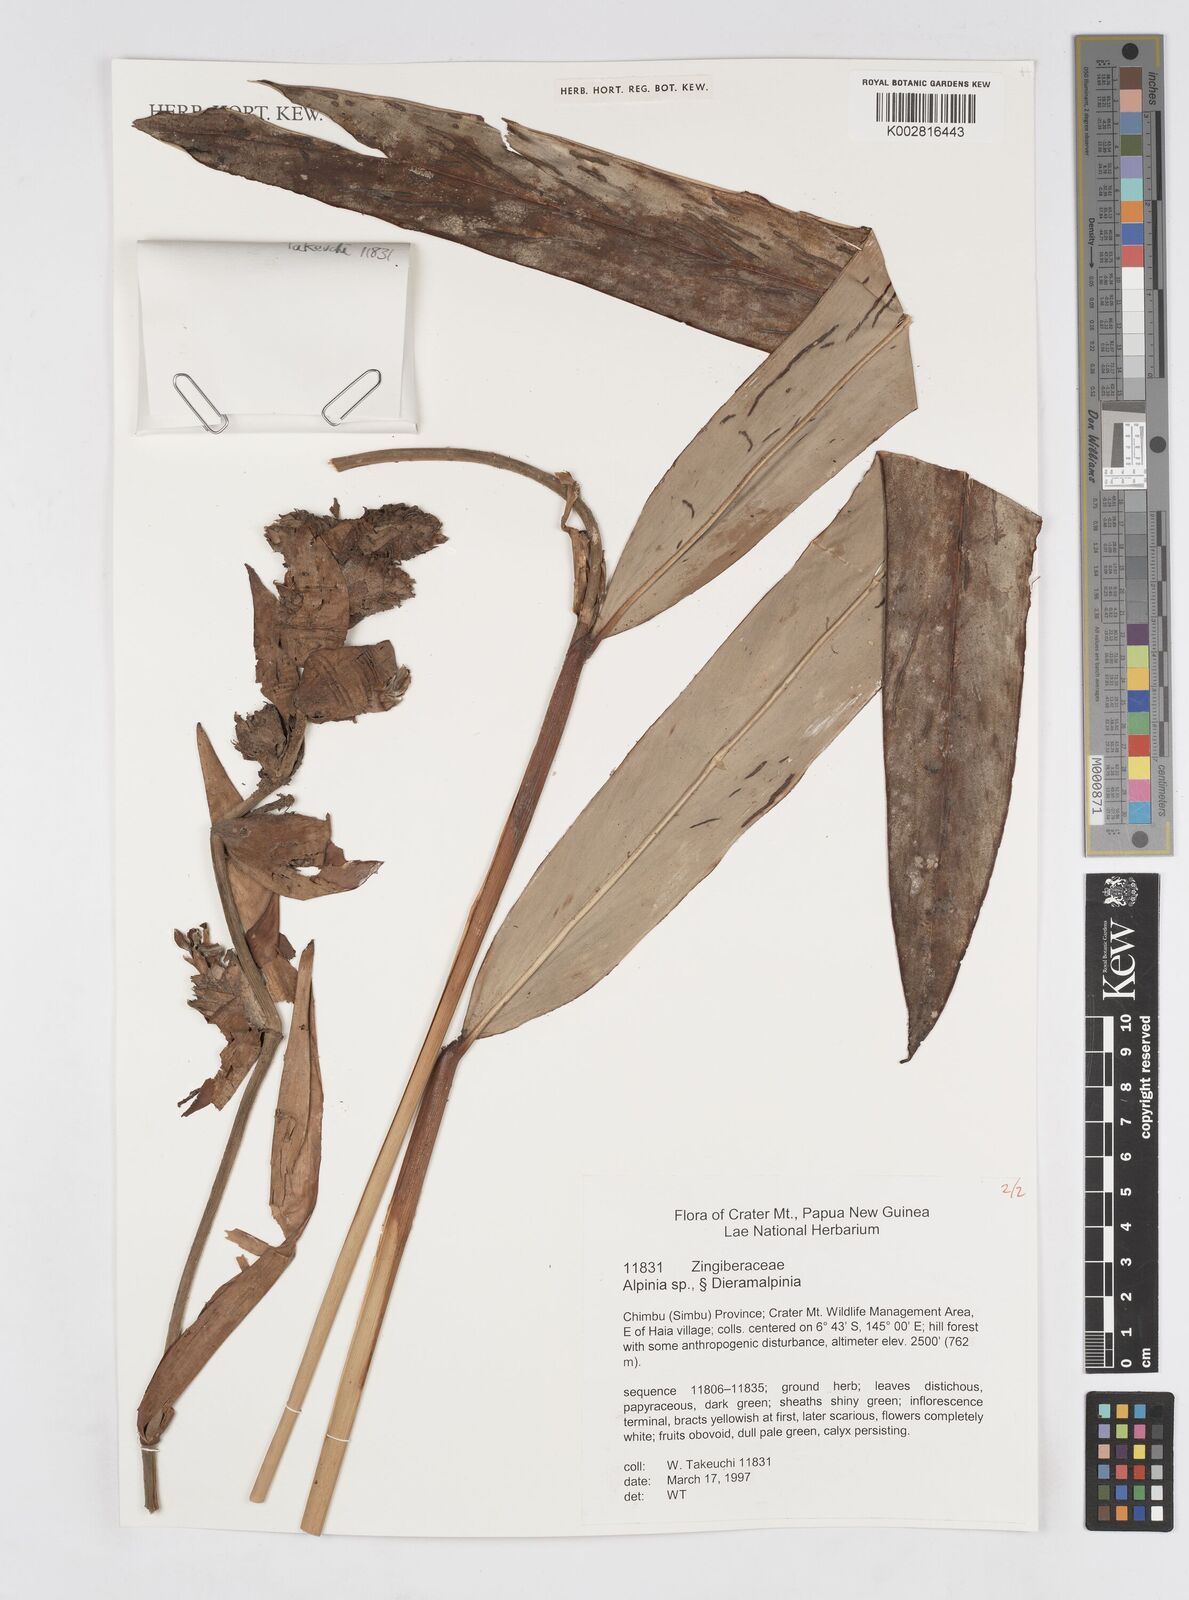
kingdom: Plantae
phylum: Tracheophyta
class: Liliopsida
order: Zingiberales
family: Zingiberaceae
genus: Alpinia
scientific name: Alpinia
